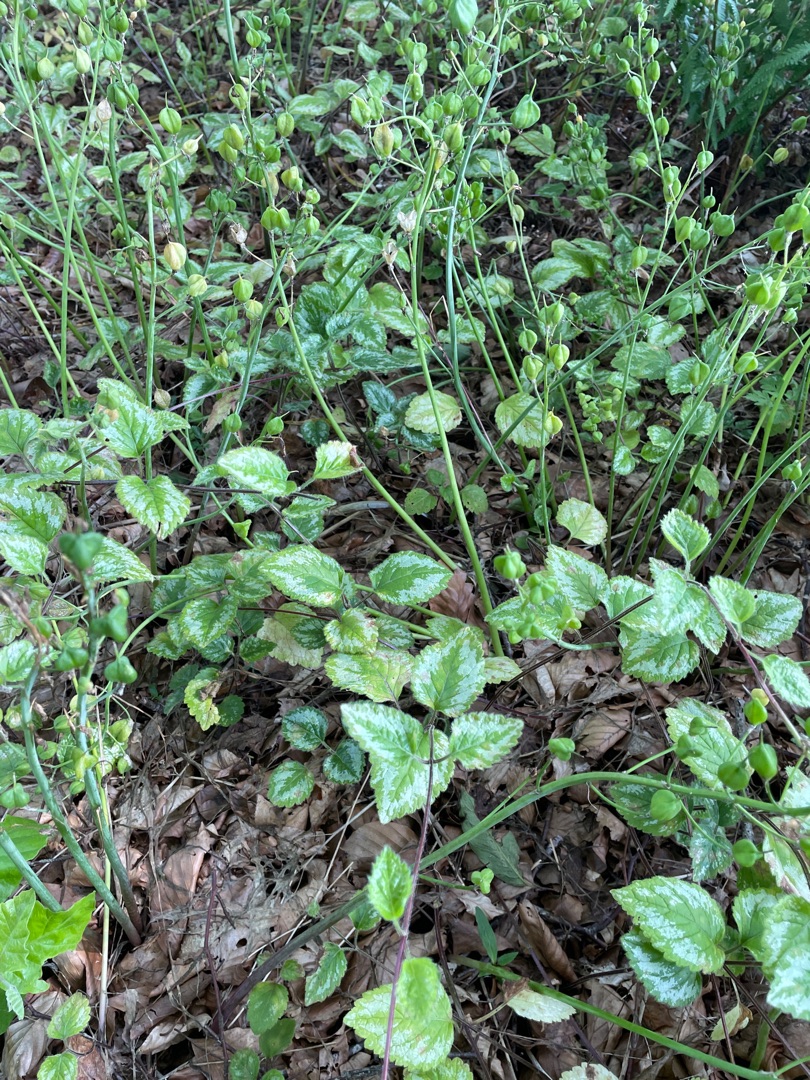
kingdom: Plantae
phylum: Tracheophyta
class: Magnoliopsida
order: Lamiales
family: Lamiaceae
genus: Lamium
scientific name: Lamium galeobdolon
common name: Have-guldnælde
